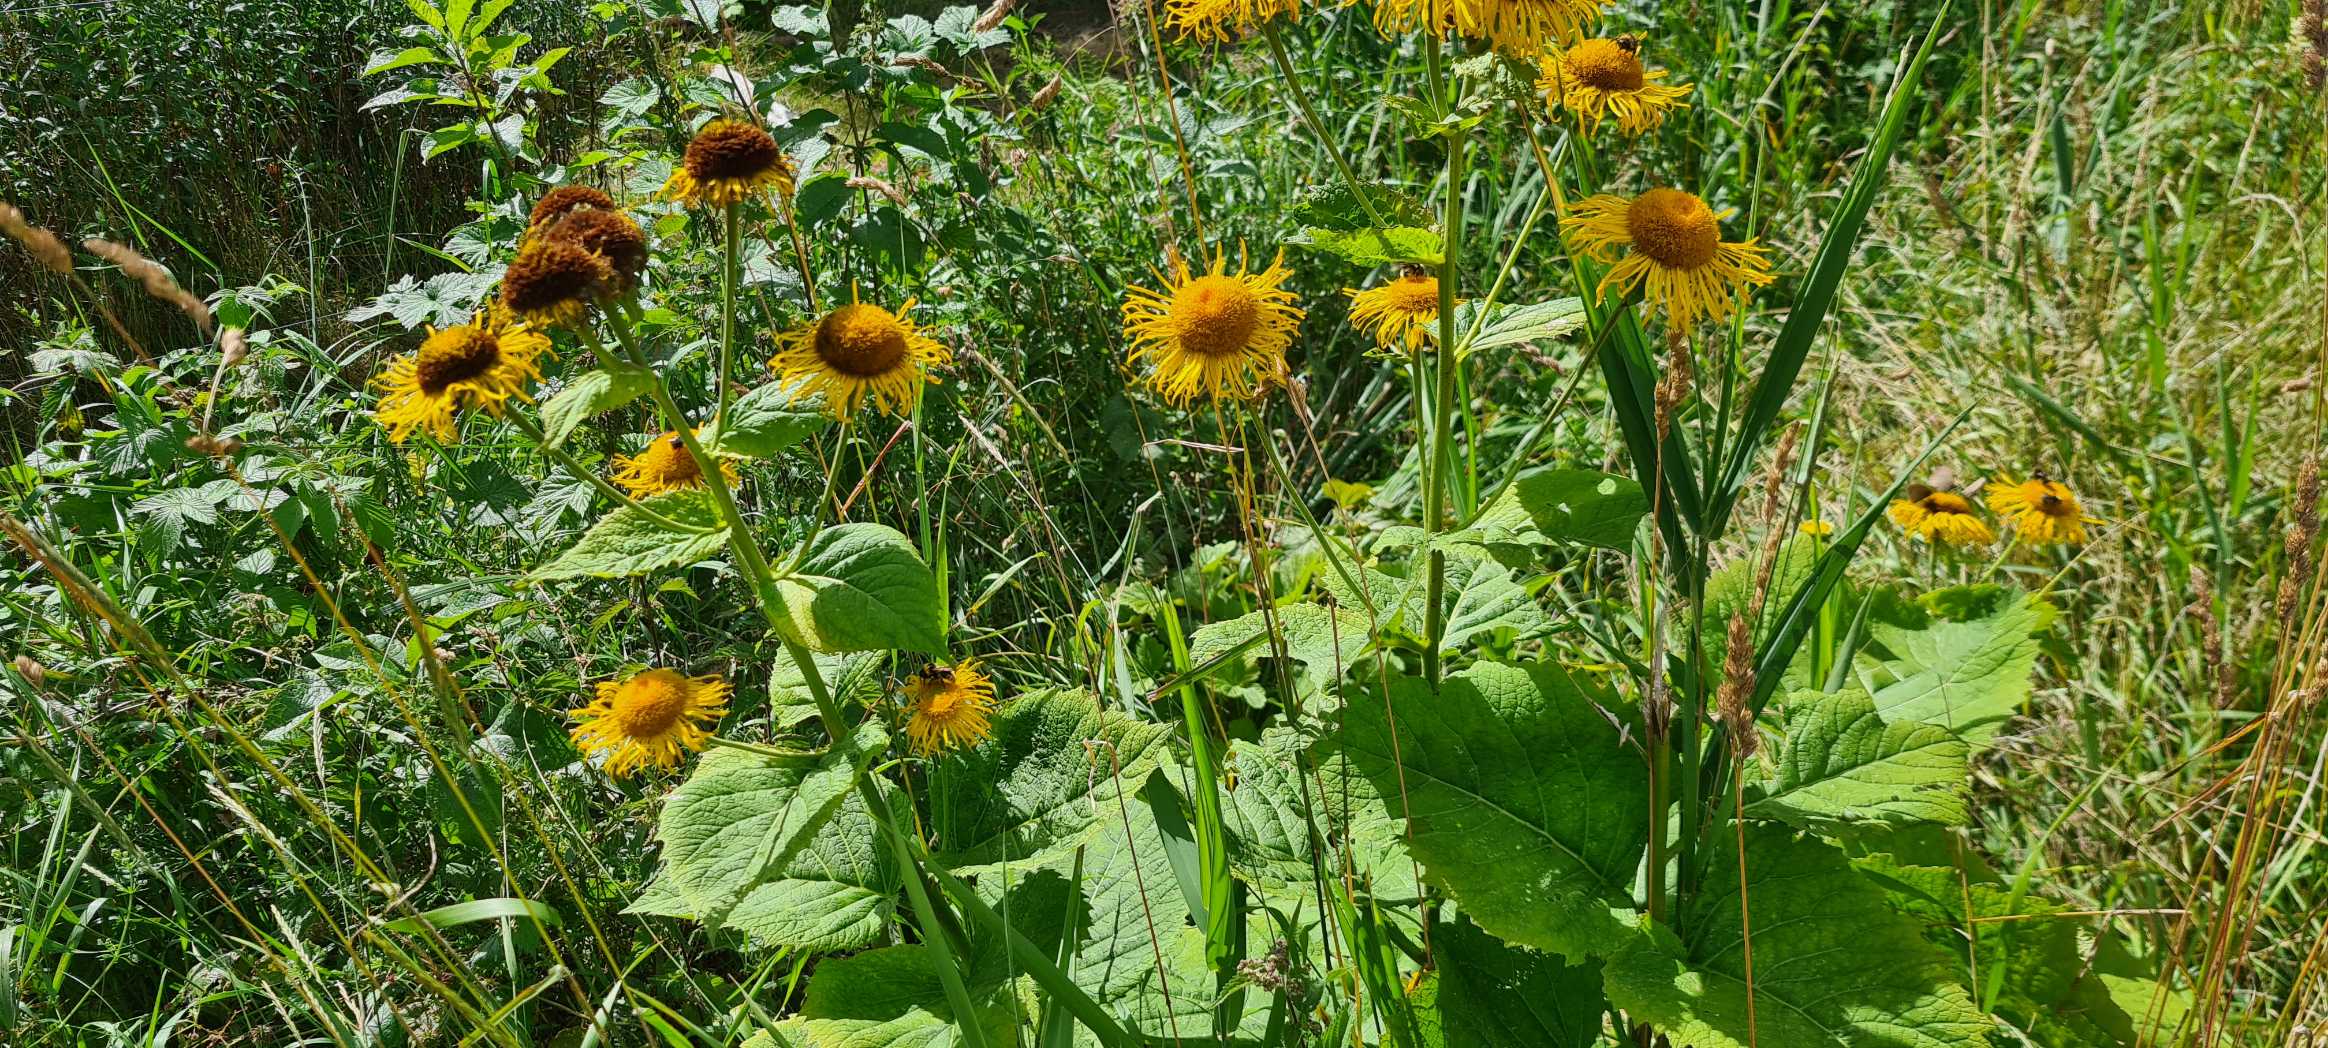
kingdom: Plantae
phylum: Tracheophyta
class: Magnoliopsida
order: Asterales
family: Asteraceae
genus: Telekia
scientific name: Telekia speciosa
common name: Tusindstråle
